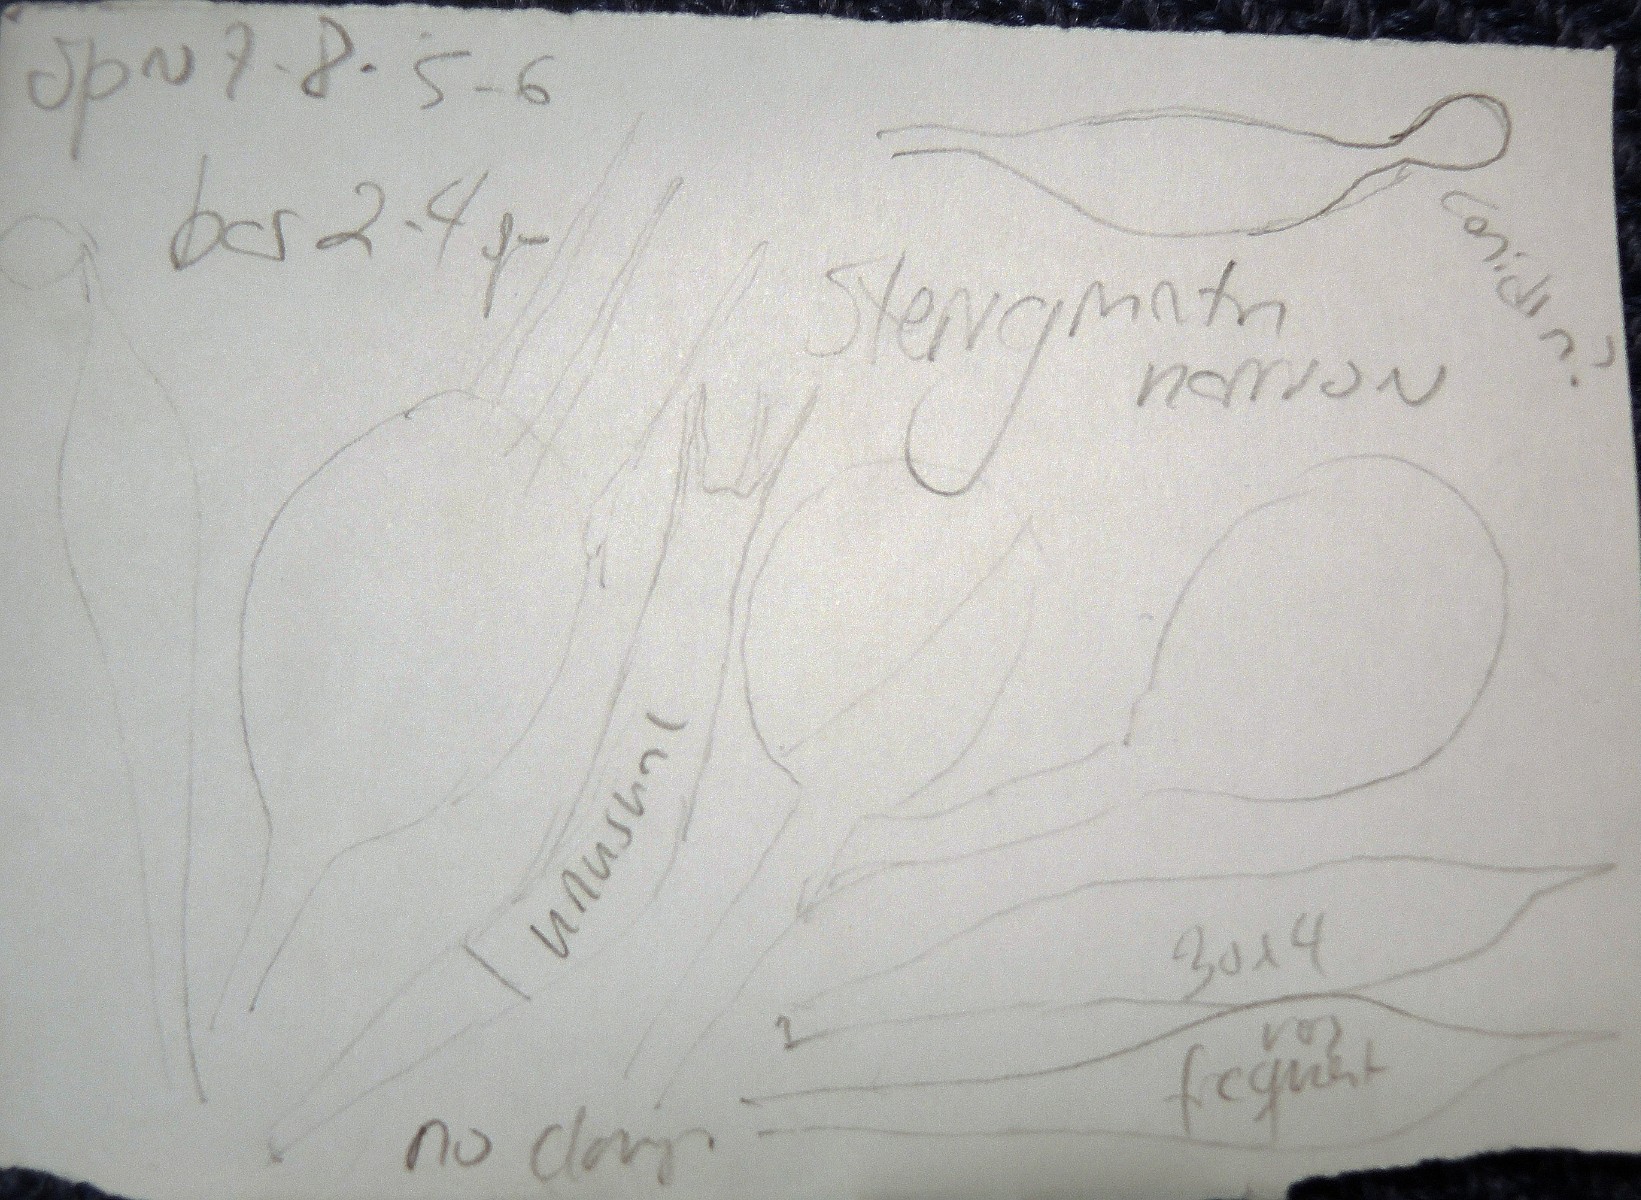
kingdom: Fungi
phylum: Basidiomycota
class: Agaricomycetes
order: Auriculariales
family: Hyaloriaceae
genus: Myxarium
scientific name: Myxarium
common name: bævretop
